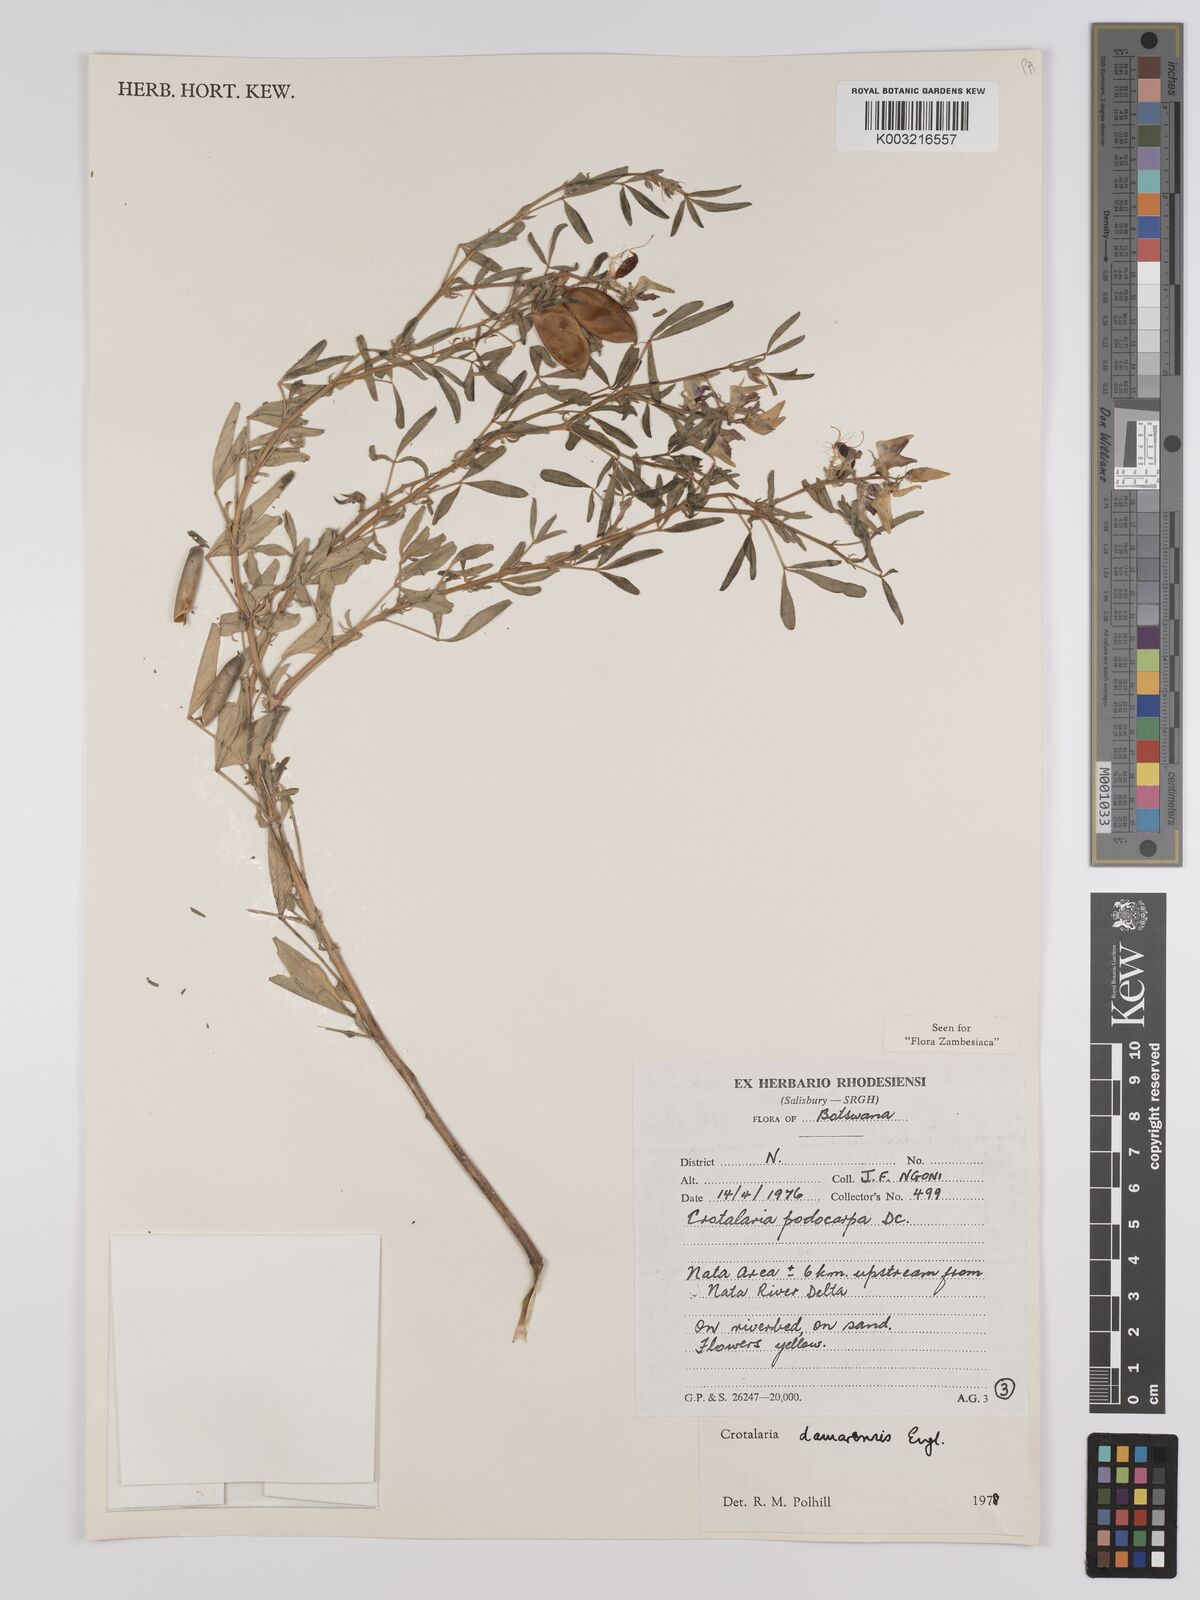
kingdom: Plantae
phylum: Tracheophyta
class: Magnoliopsida
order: Fabales
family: Fabaceae
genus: Crotalaria
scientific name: Crotalaria damarensis
